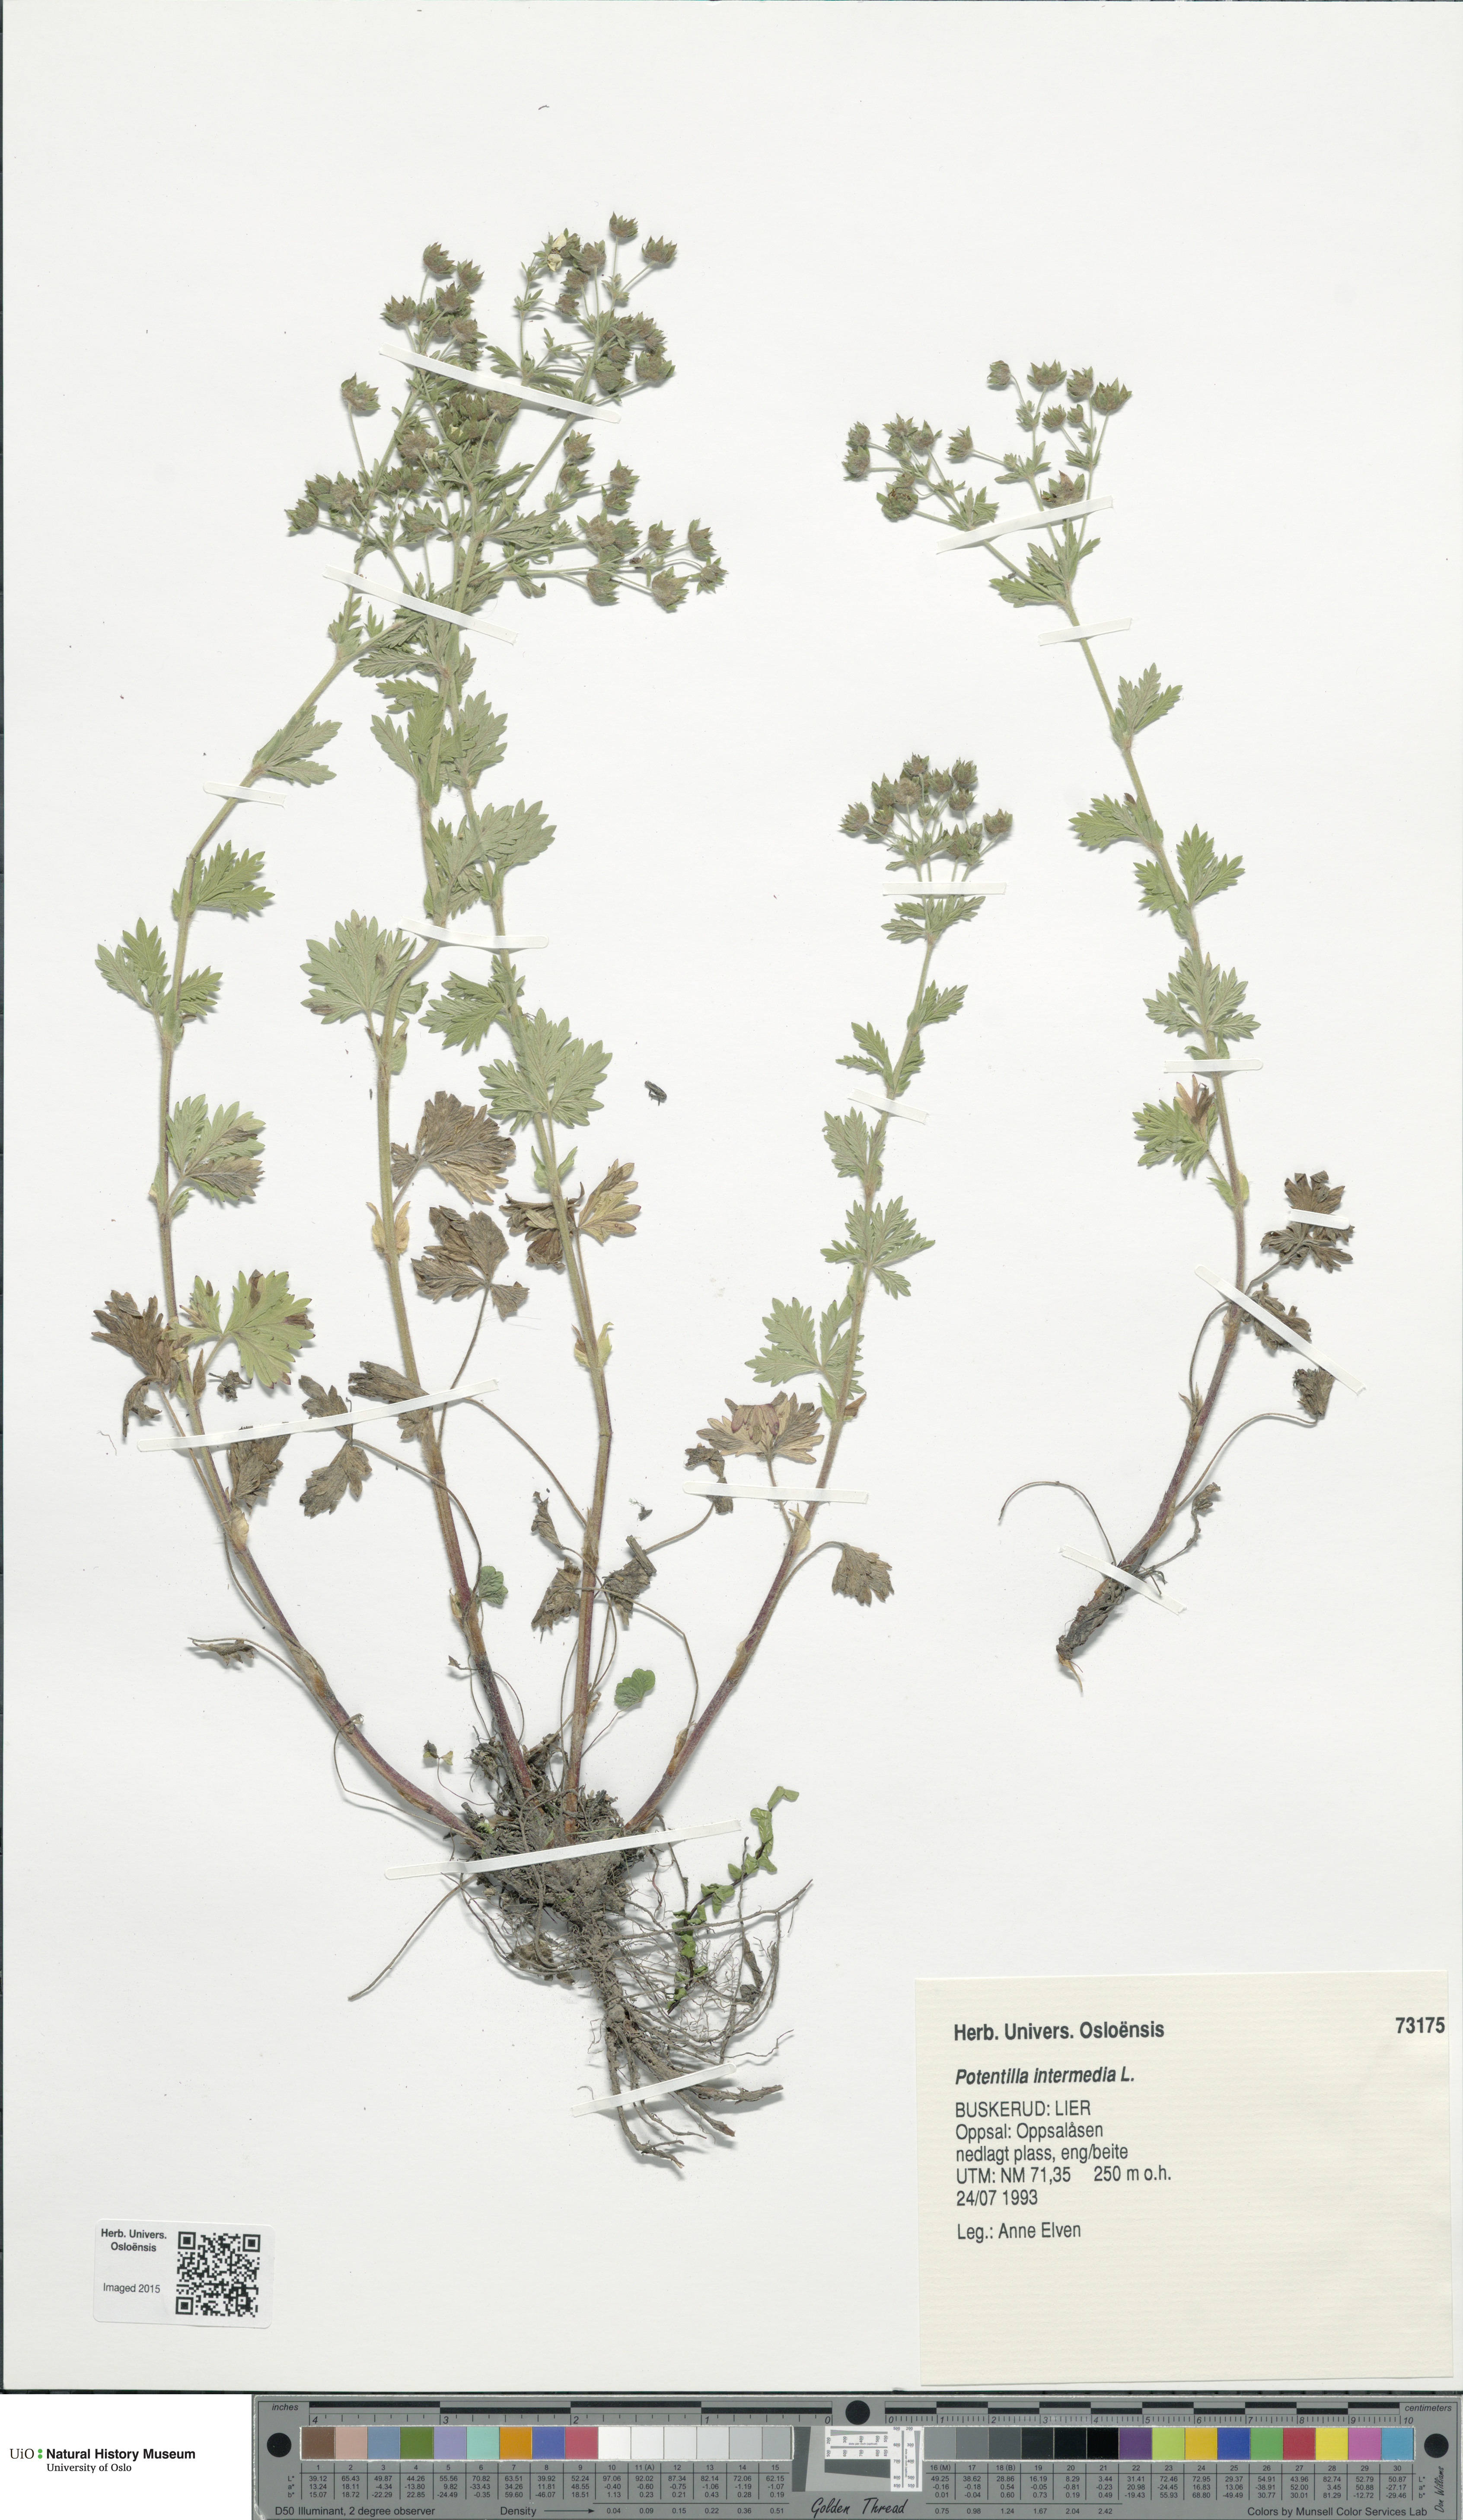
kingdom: Plantae
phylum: Tracheophyta
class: Magnoliopsida
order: Rosales
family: Rosaceae
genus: Potentilla
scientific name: Potentilla intermedia
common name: Downy cinquefoil
